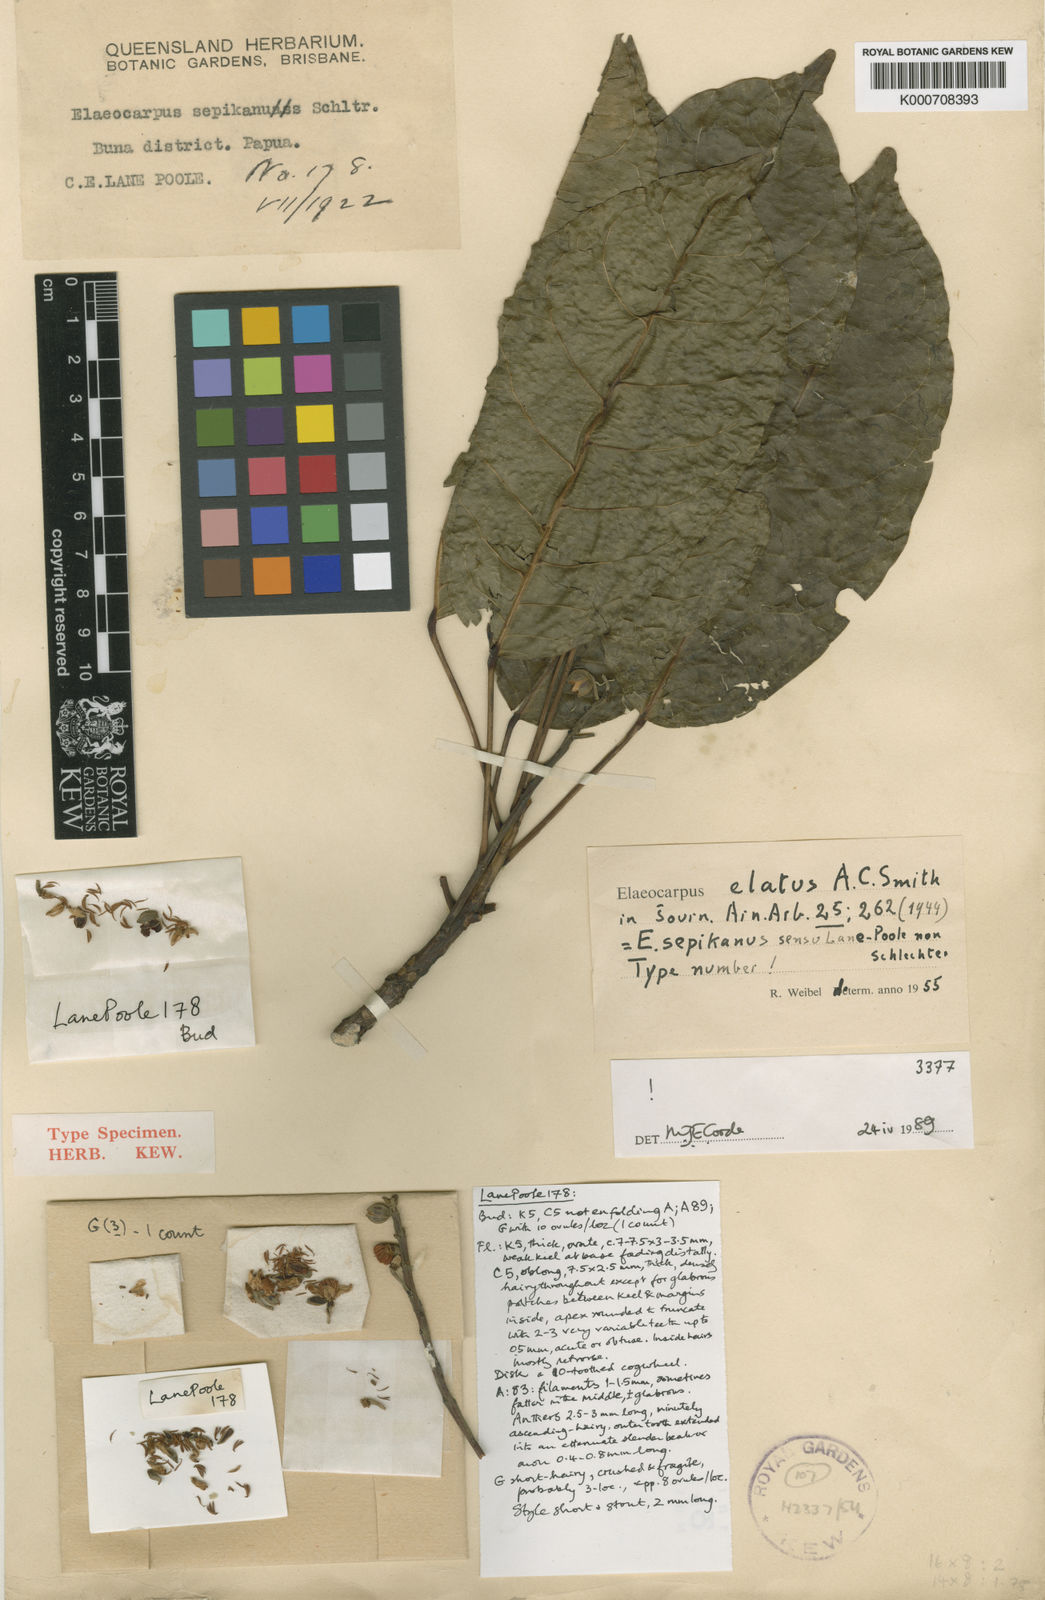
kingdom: Plantae
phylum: Tracheophyta
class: Magnoliopsida
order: Oxalidales
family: Elaeocarpaceae
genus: Elaeocarpus
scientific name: Elaeocarpus elatus
